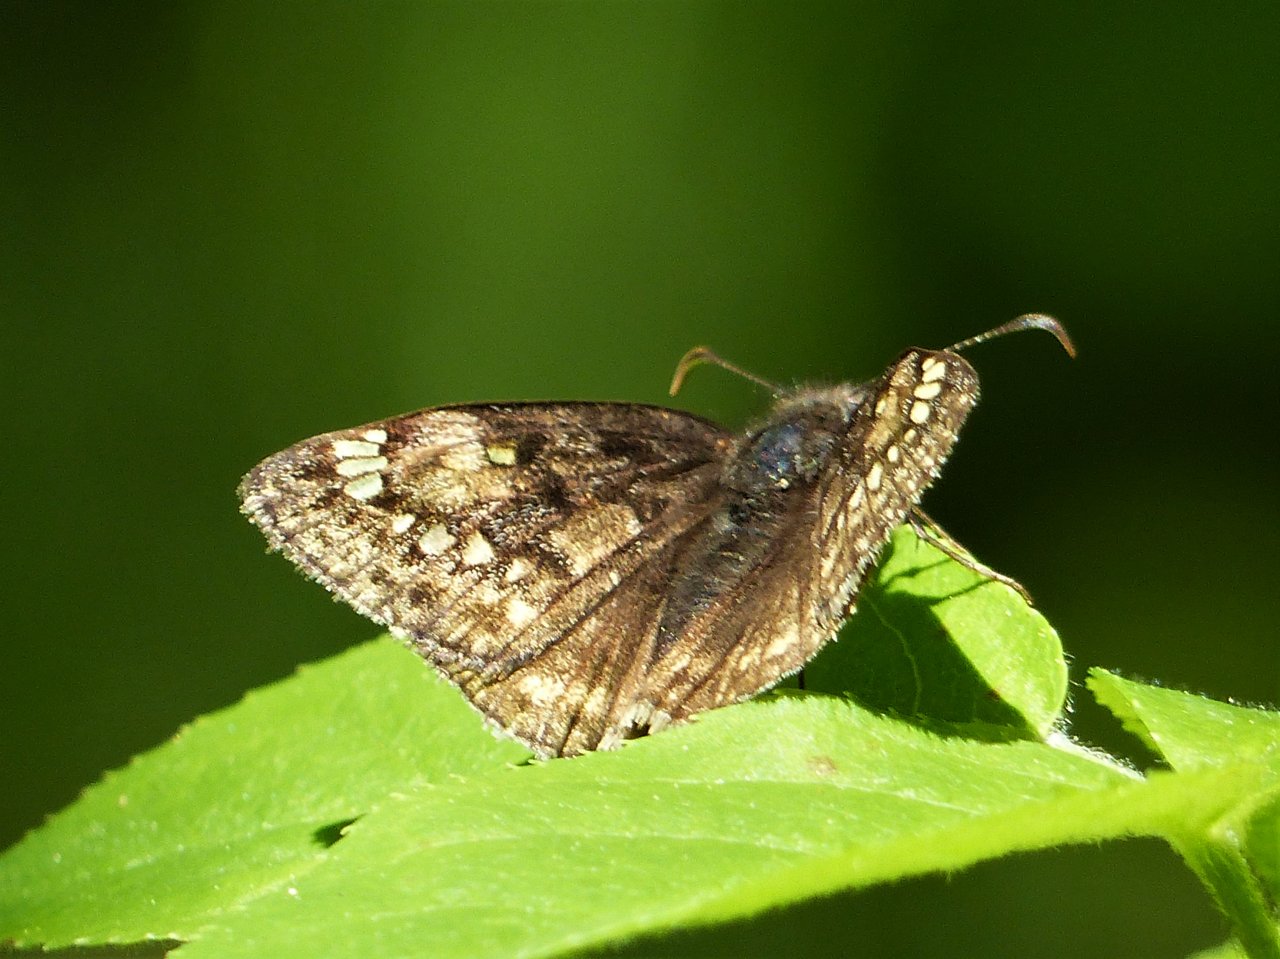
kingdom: Animalia
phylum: Arthropoda
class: Insecta
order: Lepidoptera
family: Hesperiidae
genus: Gesta
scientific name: Gesta
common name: Juvenal's Duskywing
